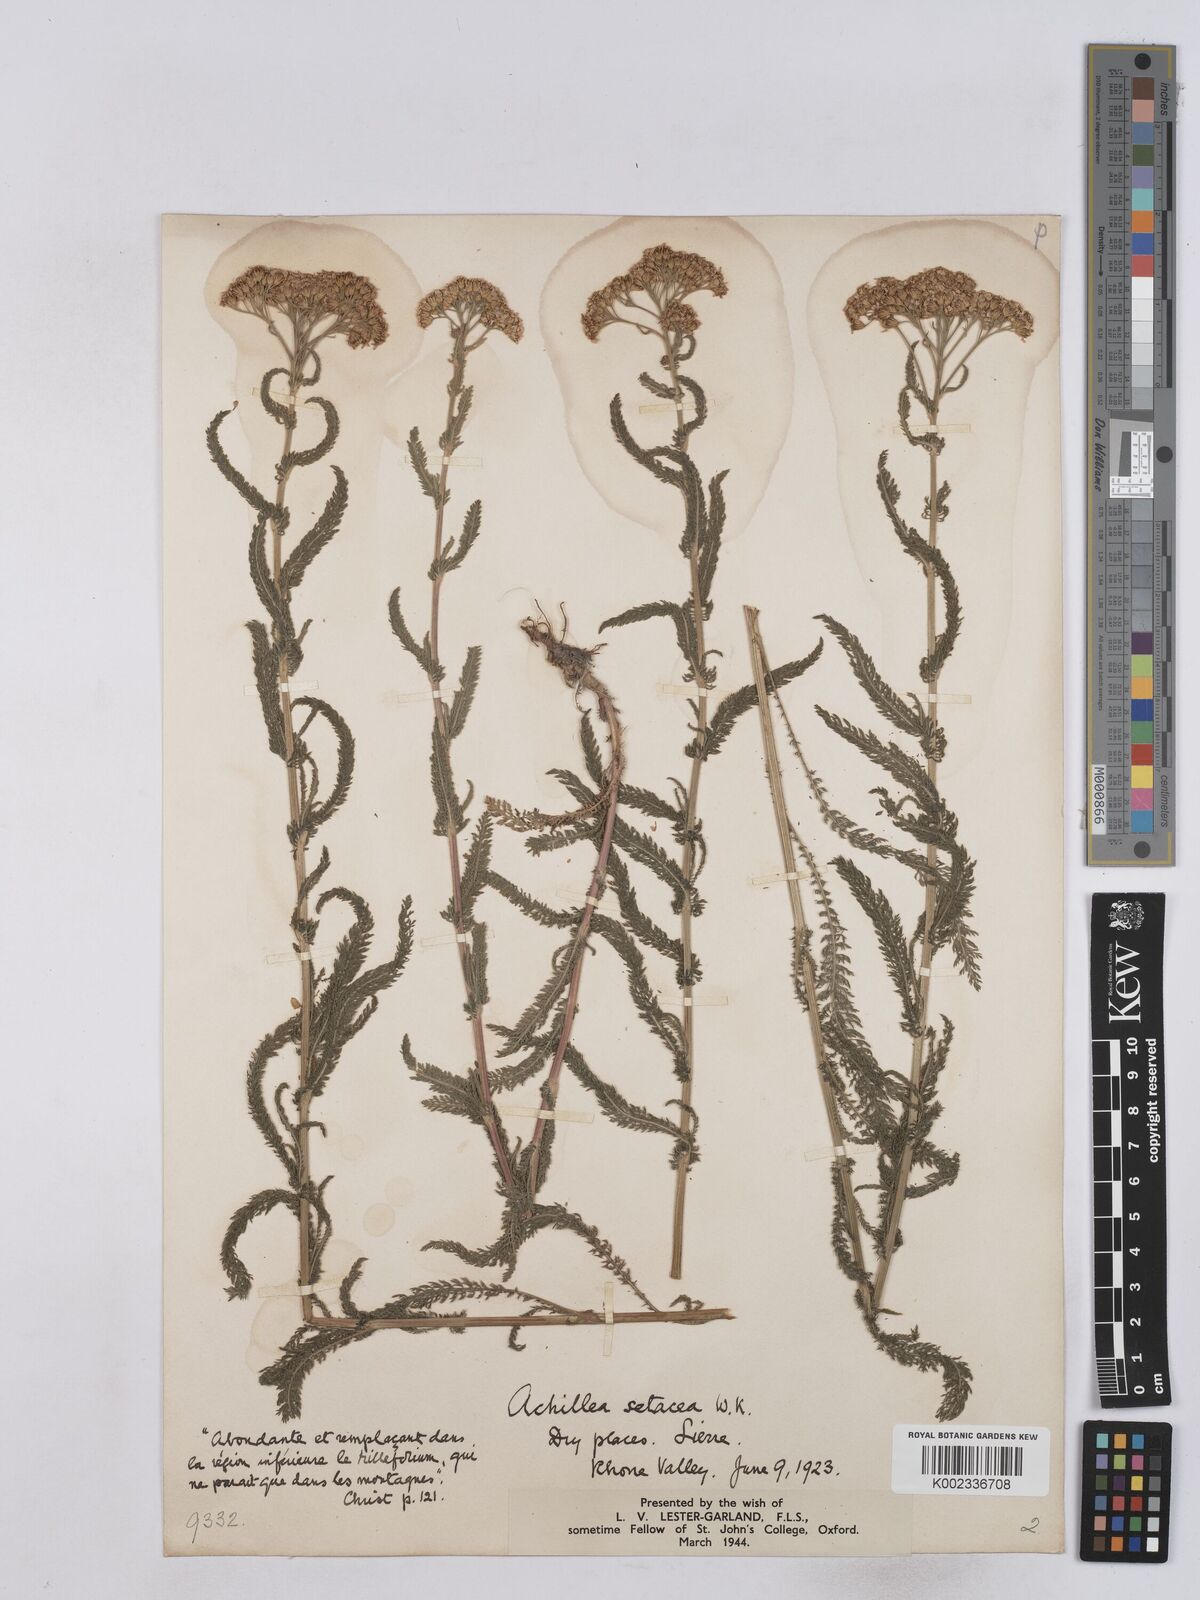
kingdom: Plantae
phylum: Tracheophyta
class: Magnoliopsida
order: Asterales
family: Asteraceae
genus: Achillea
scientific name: Achillea setacea
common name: Bristly yarrow
